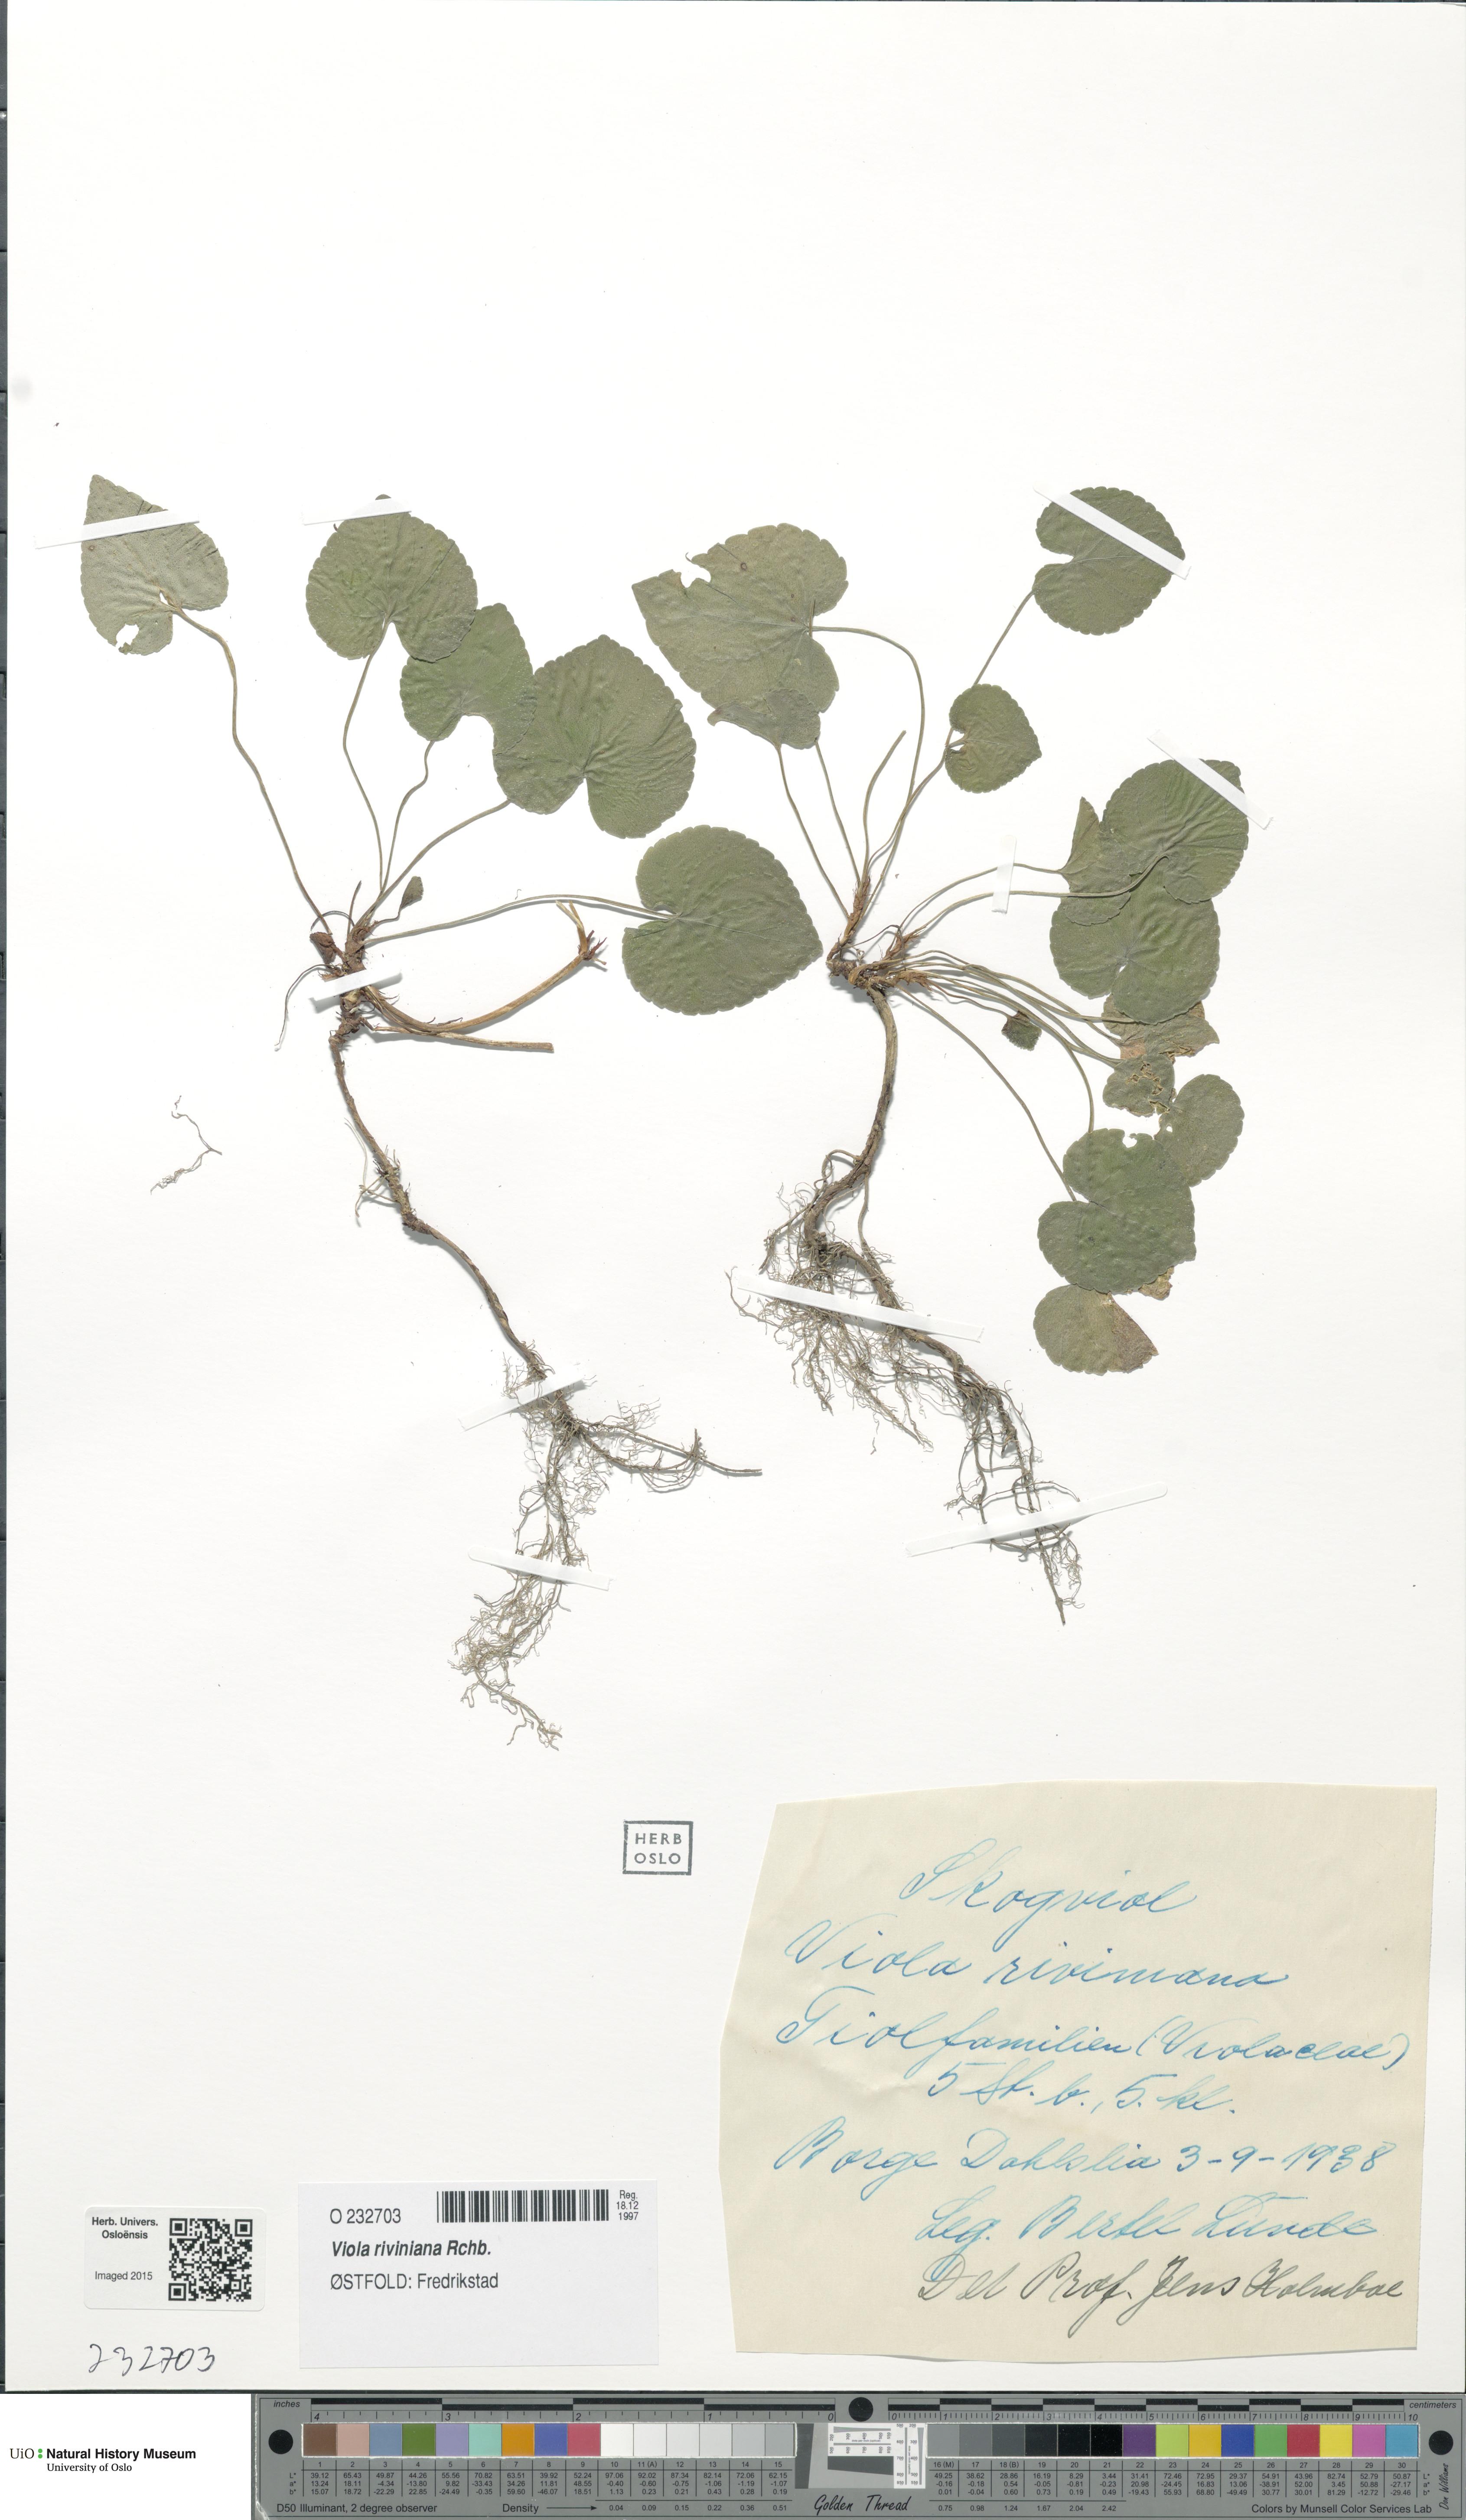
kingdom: Plantae
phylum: Tracheophyta
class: Magnoliopsida
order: Malpighiales
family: Violaceae
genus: Viola
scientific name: Viola riviniana
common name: Common dog-violet
